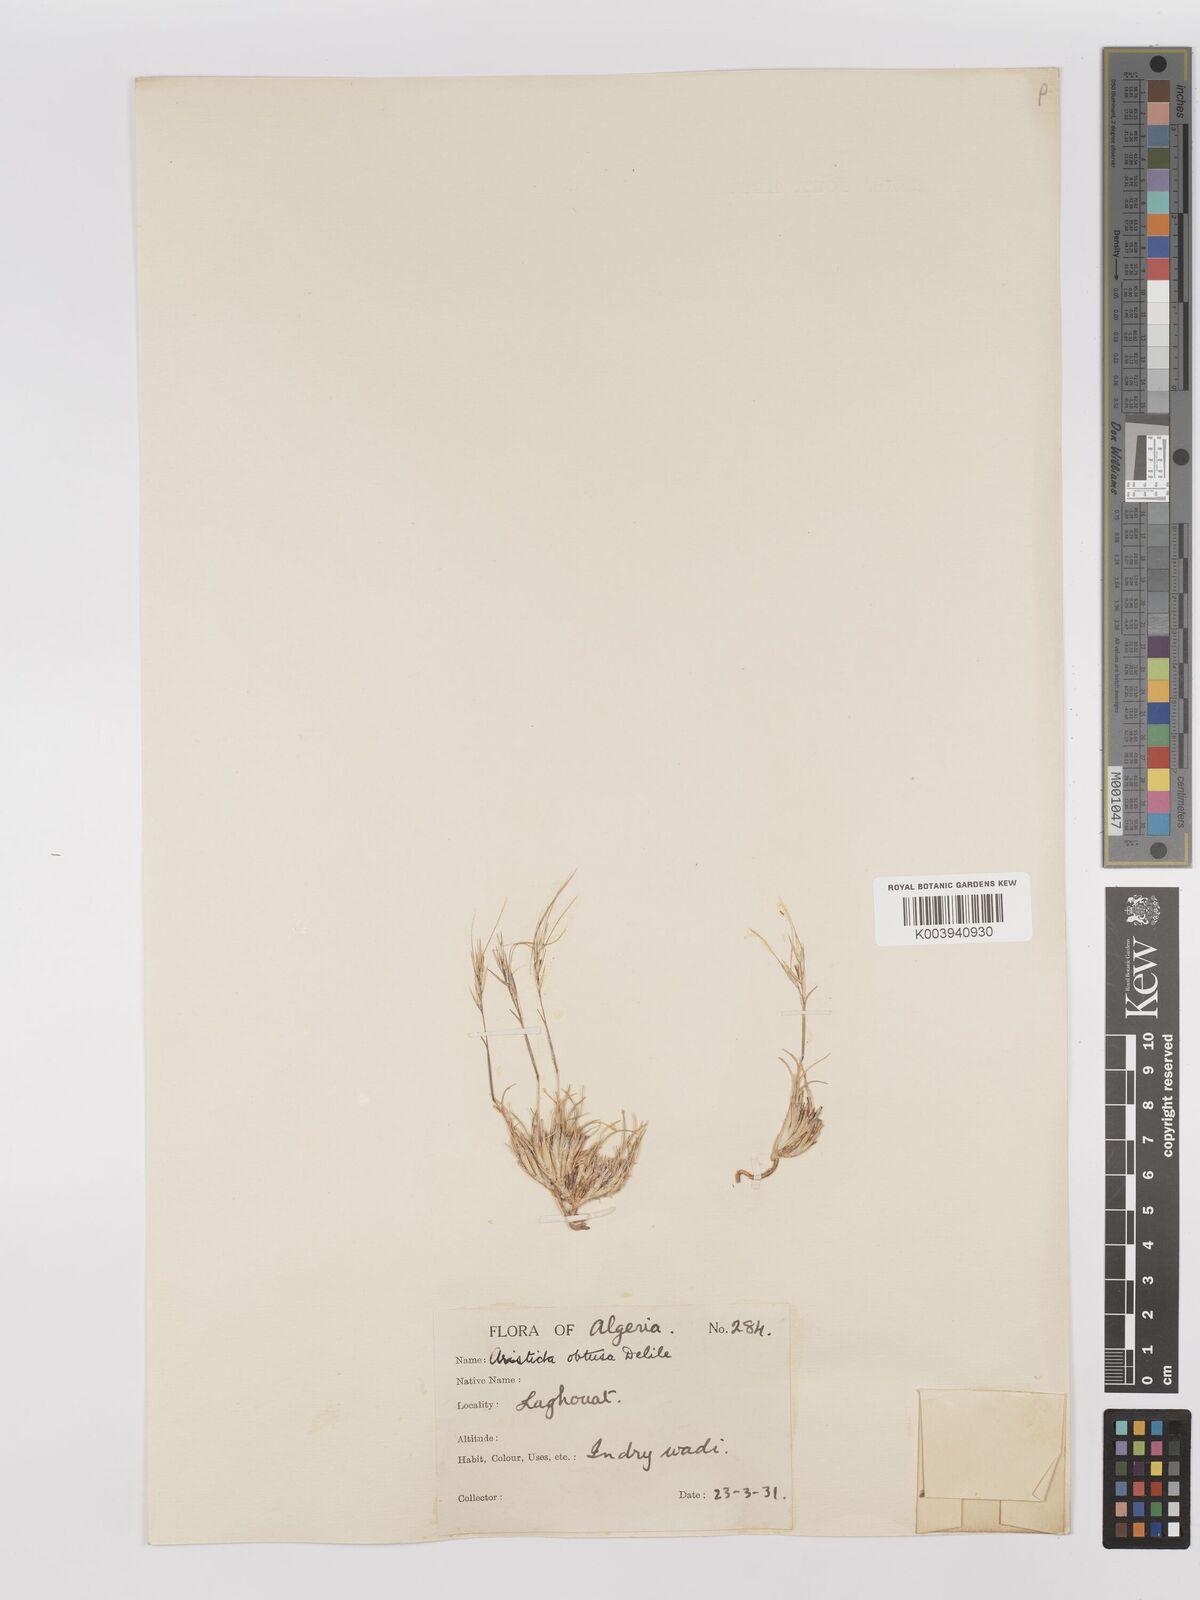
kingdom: Plantae
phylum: Tracheophyta
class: Liliopsida
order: Poales
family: Poaceae
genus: Stipagrostis
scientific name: Stipagrostis obtusa
